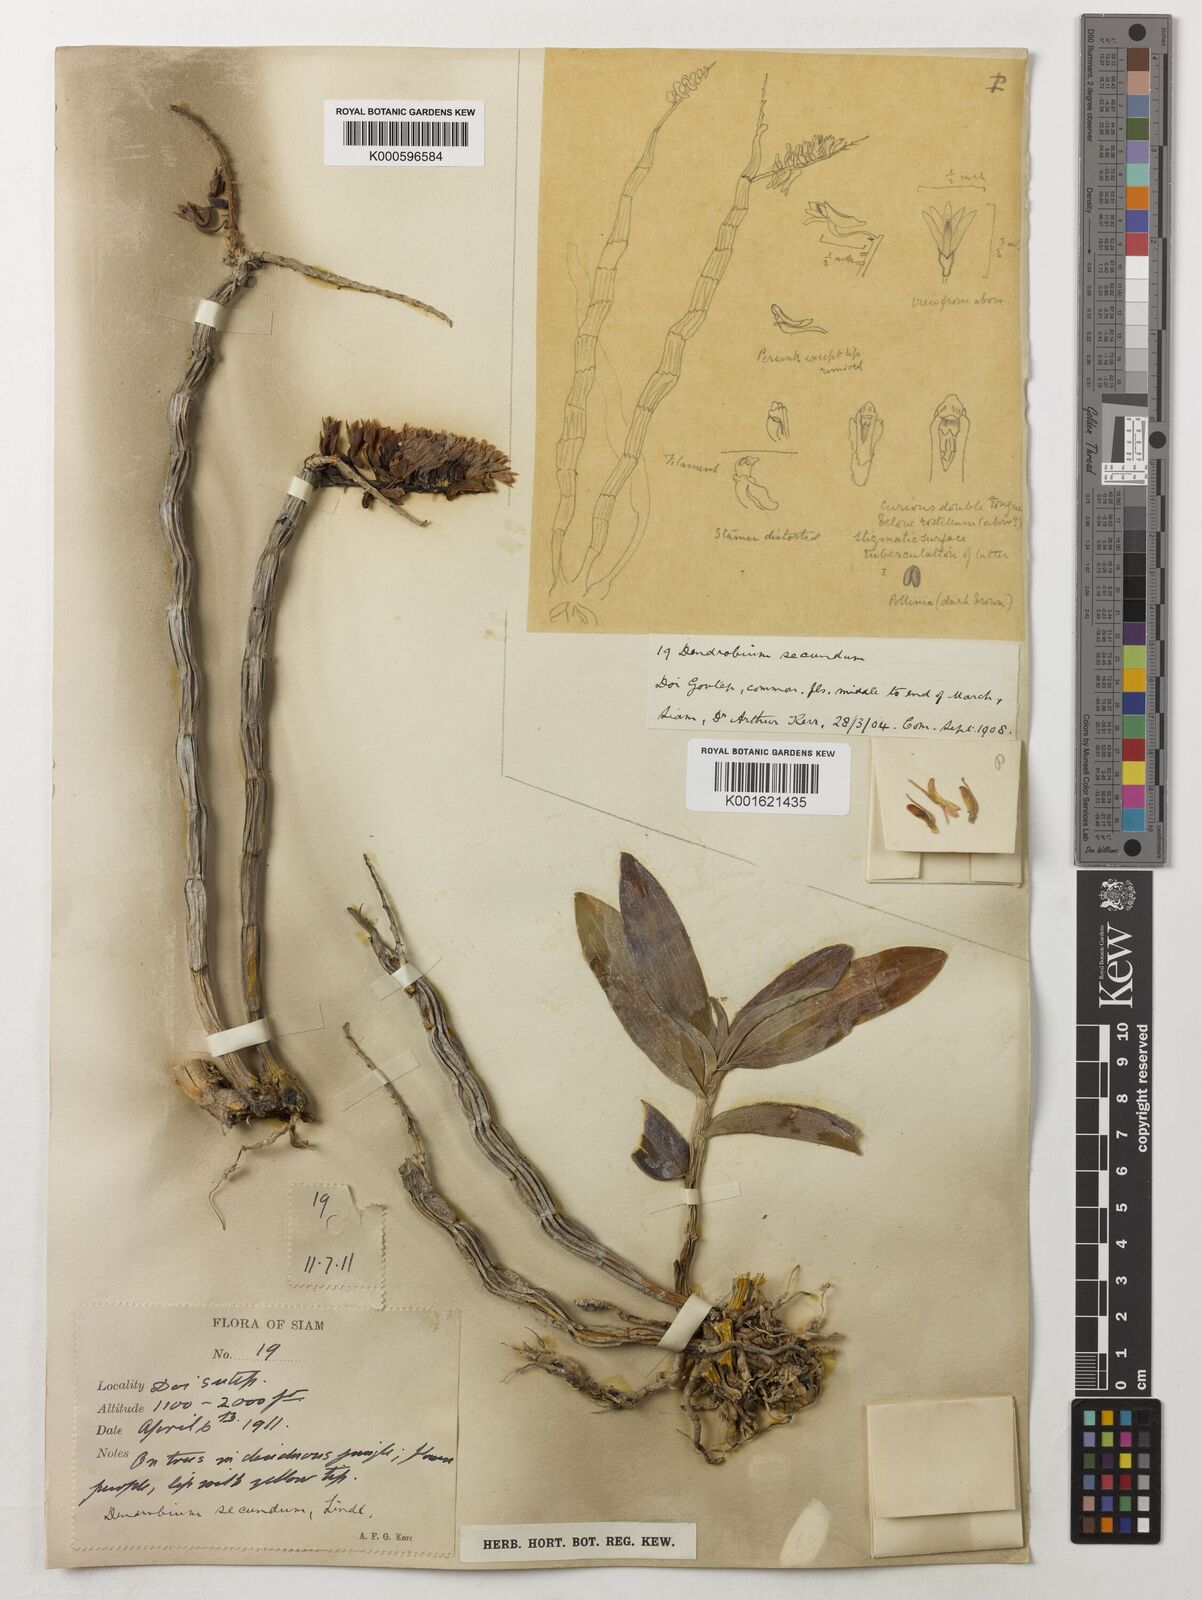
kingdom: Plantae
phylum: Tracheophyta
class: Liliopsida
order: Asparagales
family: Orchidaceae
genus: Dendrobium
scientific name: Dendrobium
